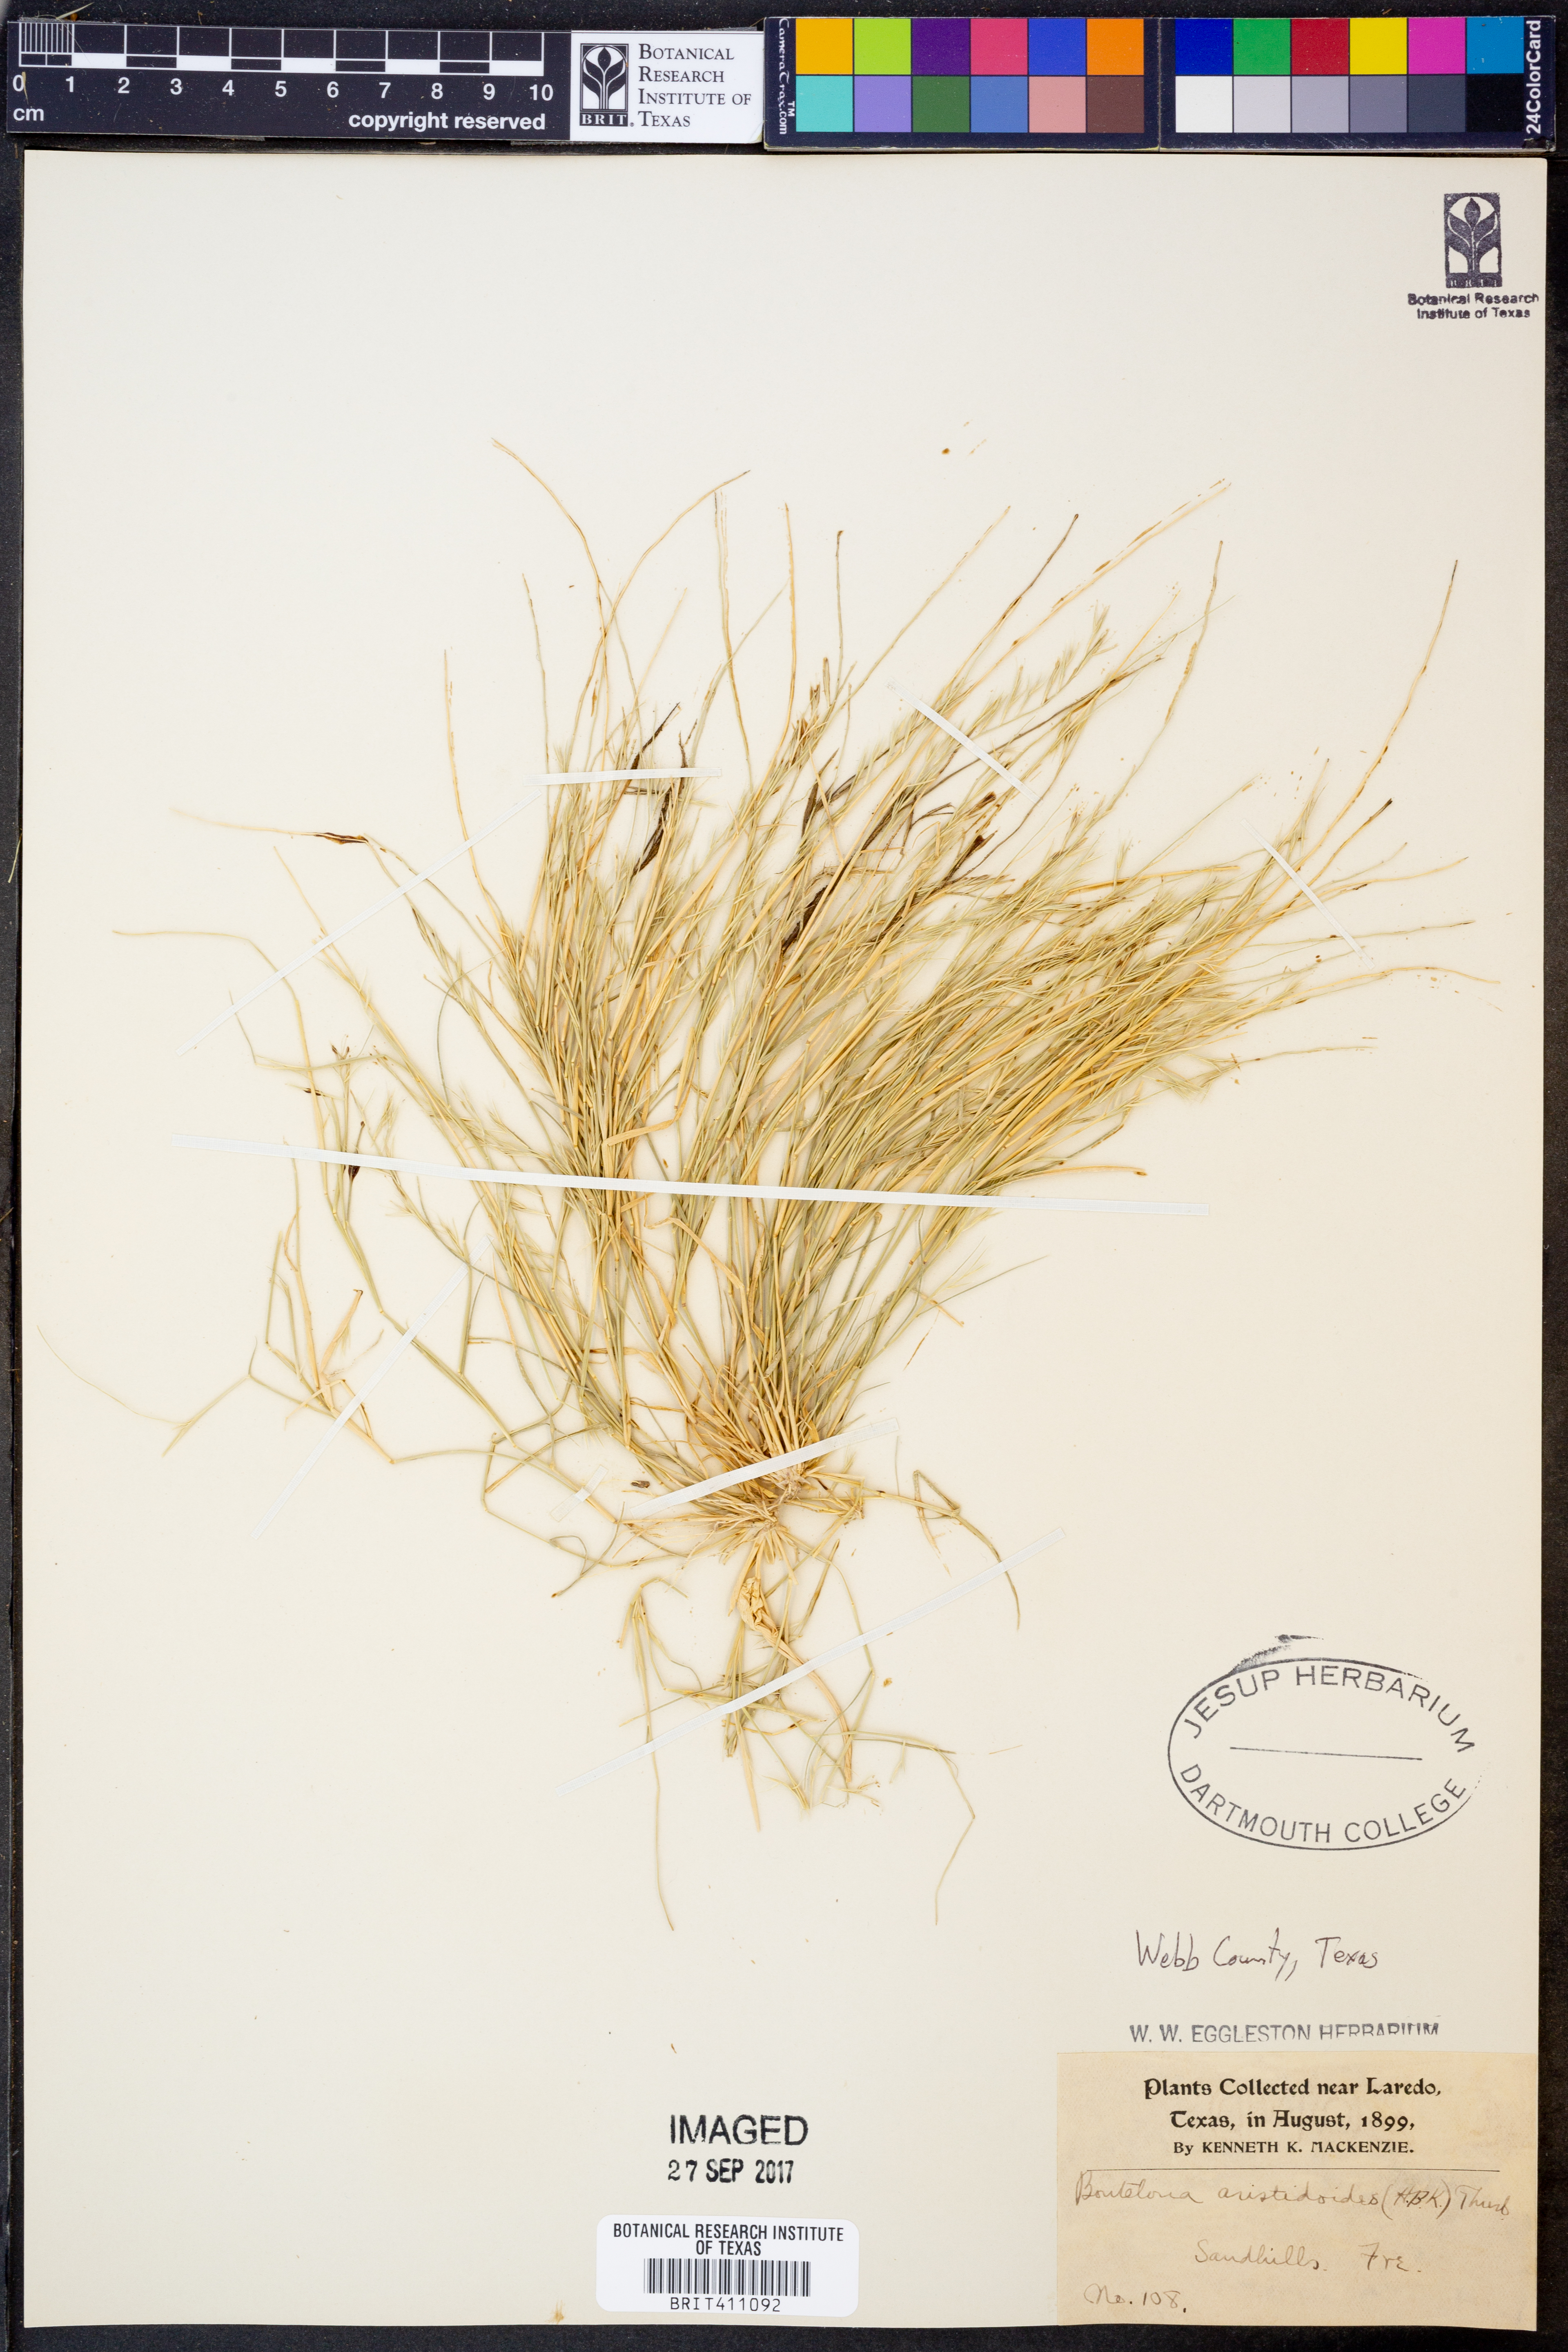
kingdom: Plantae
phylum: Tracheophyta
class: Liliopsida
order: Poales
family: Poaceae
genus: Bouteloua
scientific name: Bouteloua aristidoides
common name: Needle grama
